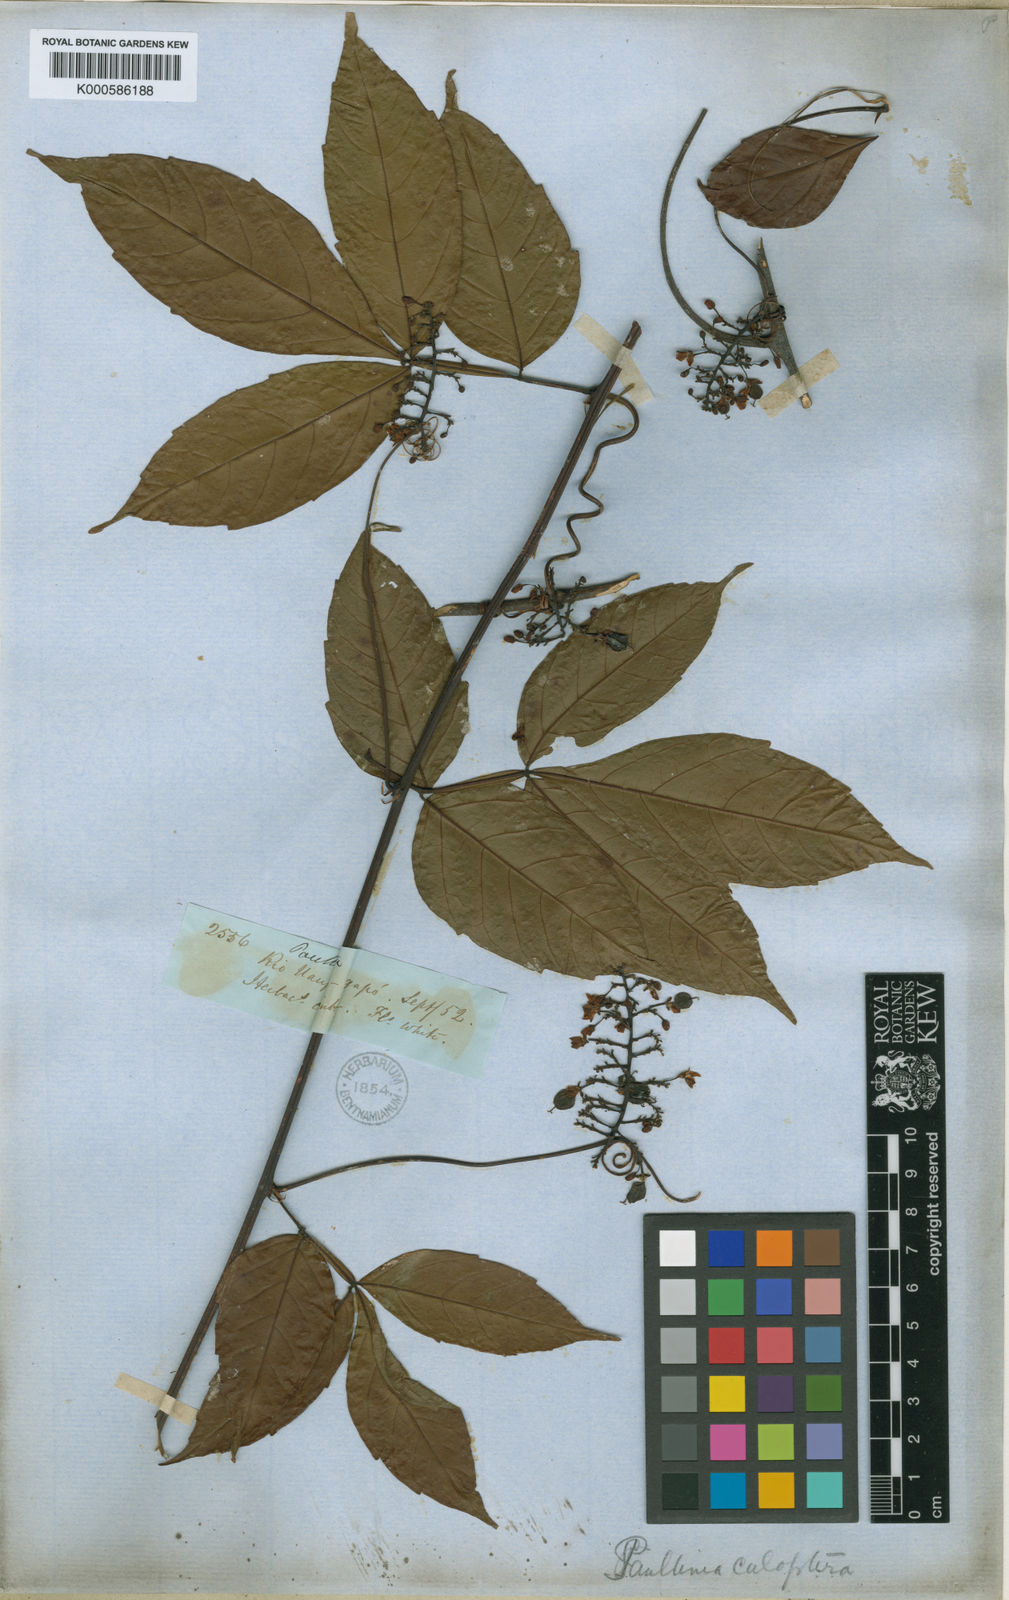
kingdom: Plantae
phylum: Tracheophyta
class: Magnoliopsida
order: Sapindales
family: Sapindaceae
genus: Paullinia
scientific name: Paullinia caloptera
